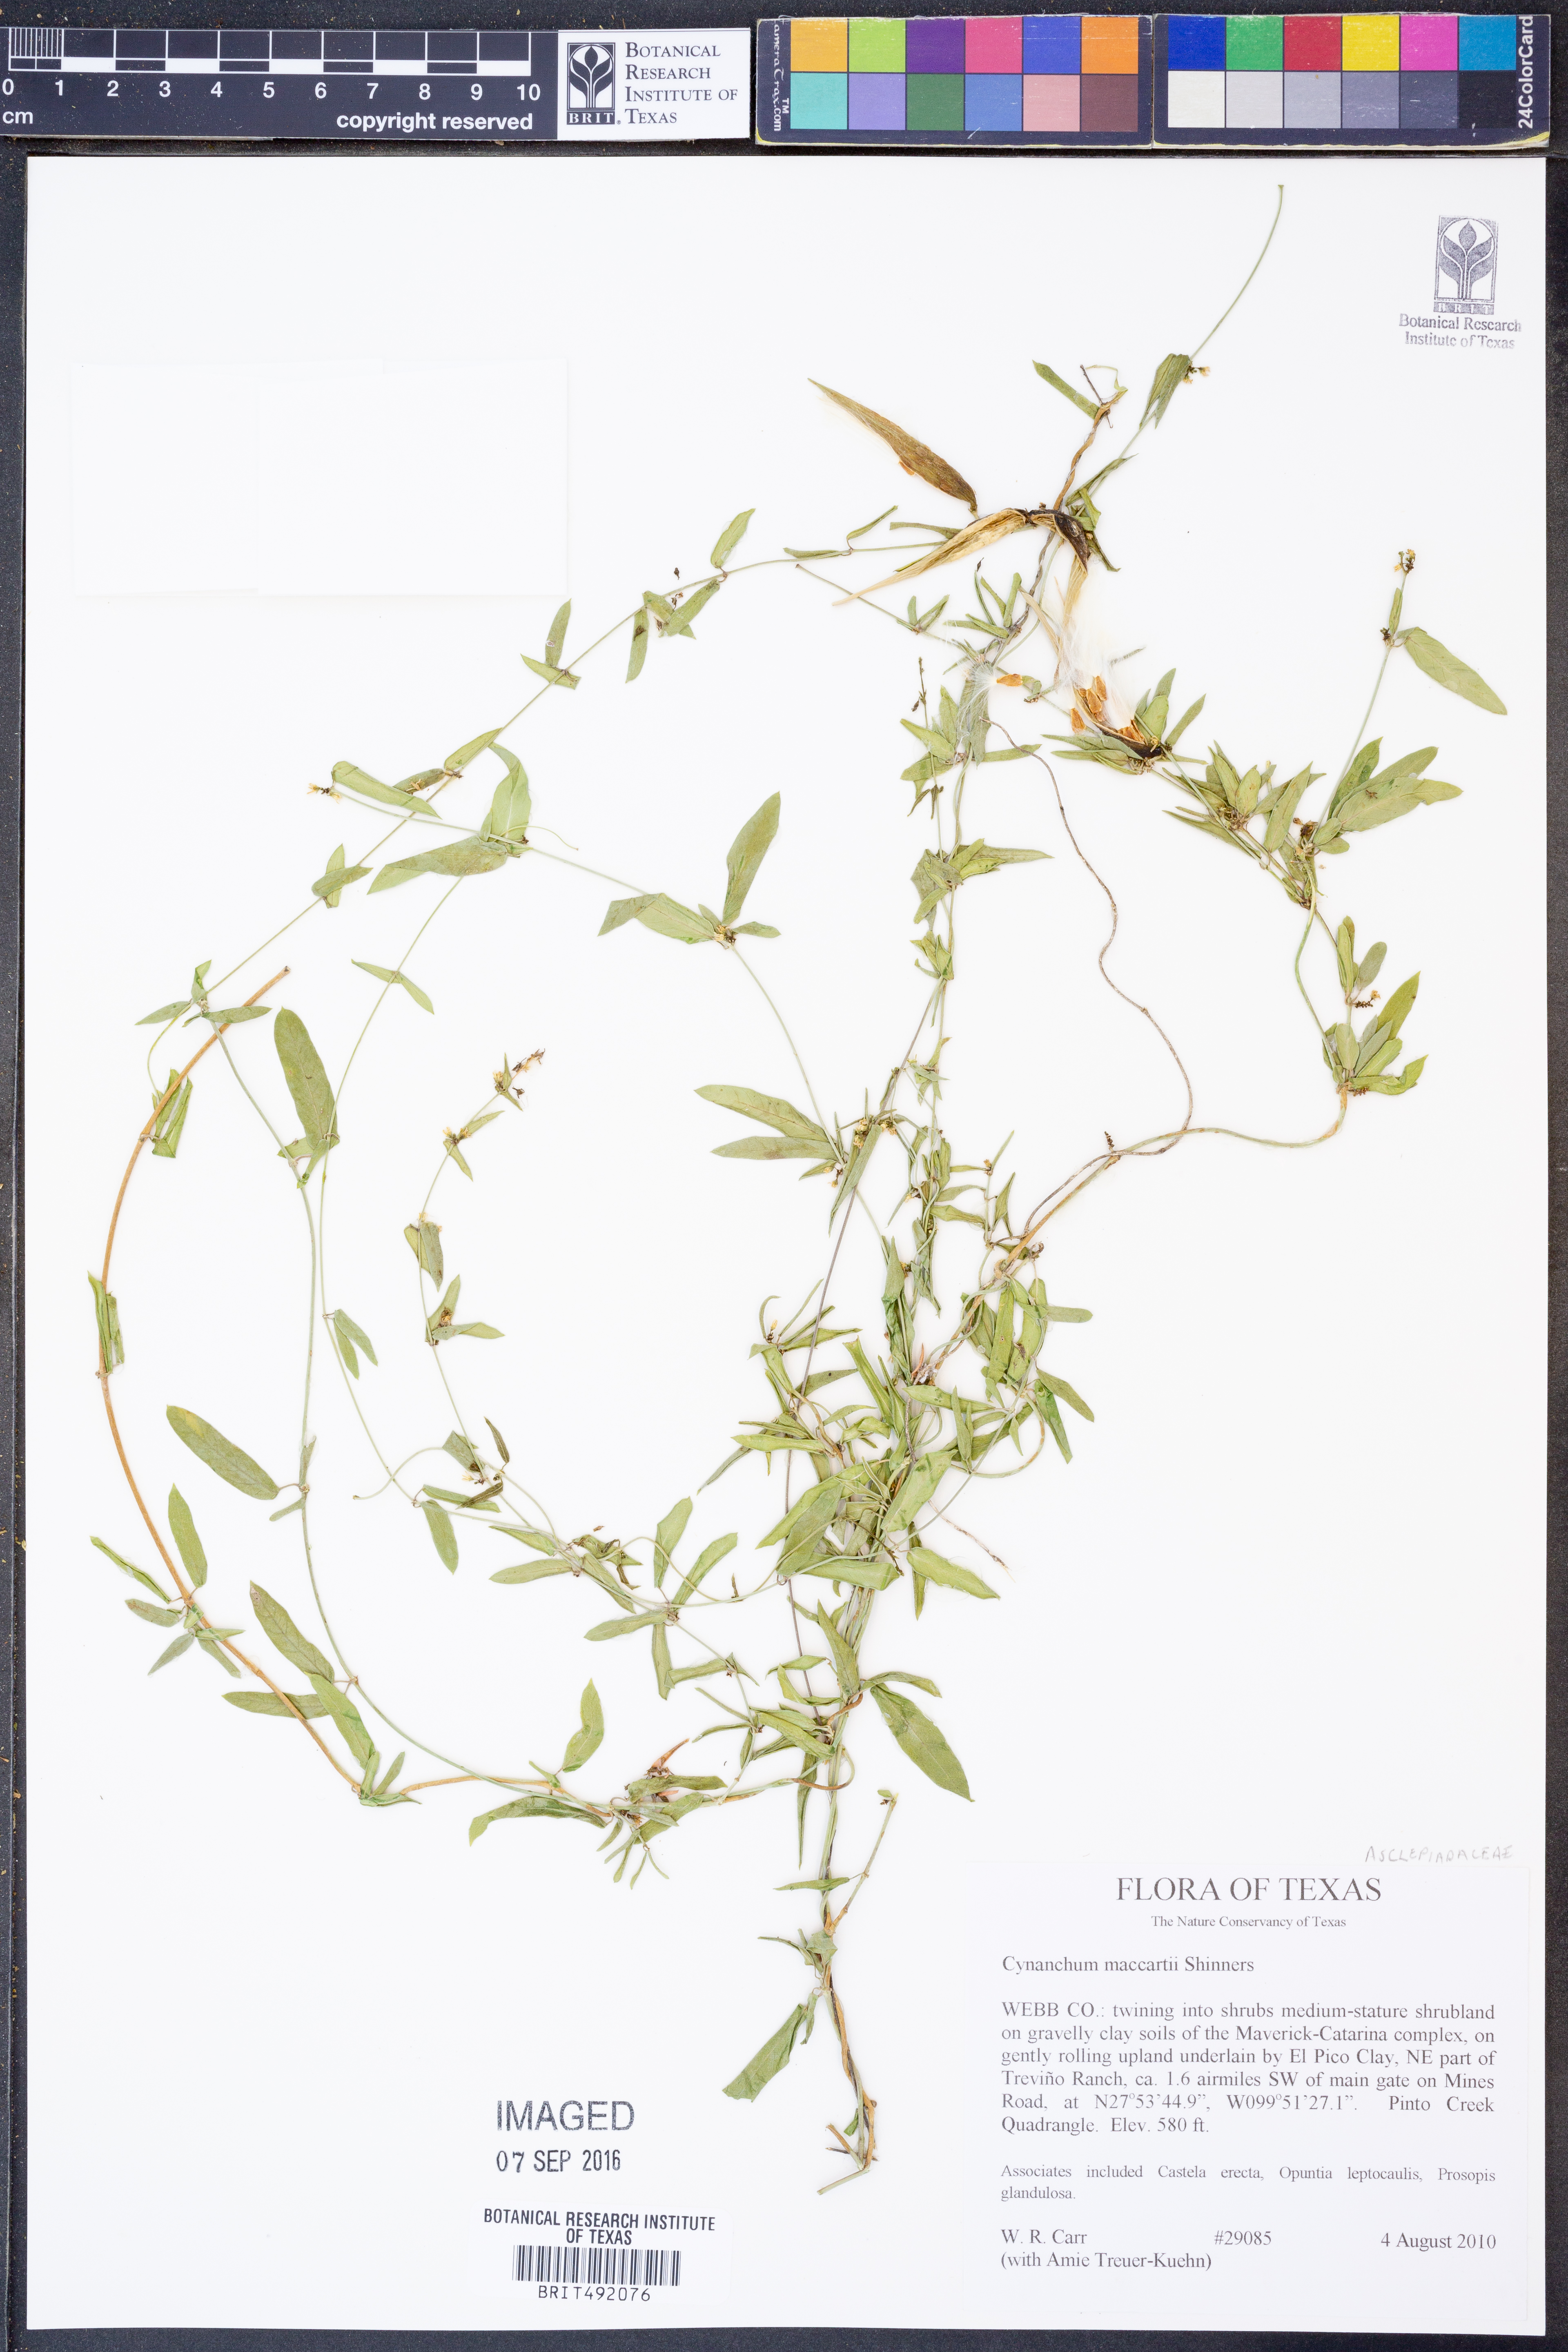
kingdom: Plantae
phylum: Tracheophyta
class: Magnoliopsida
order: Gentianales
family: Apocynaceae
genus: Metastelma
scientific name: Metastelma palmeri
